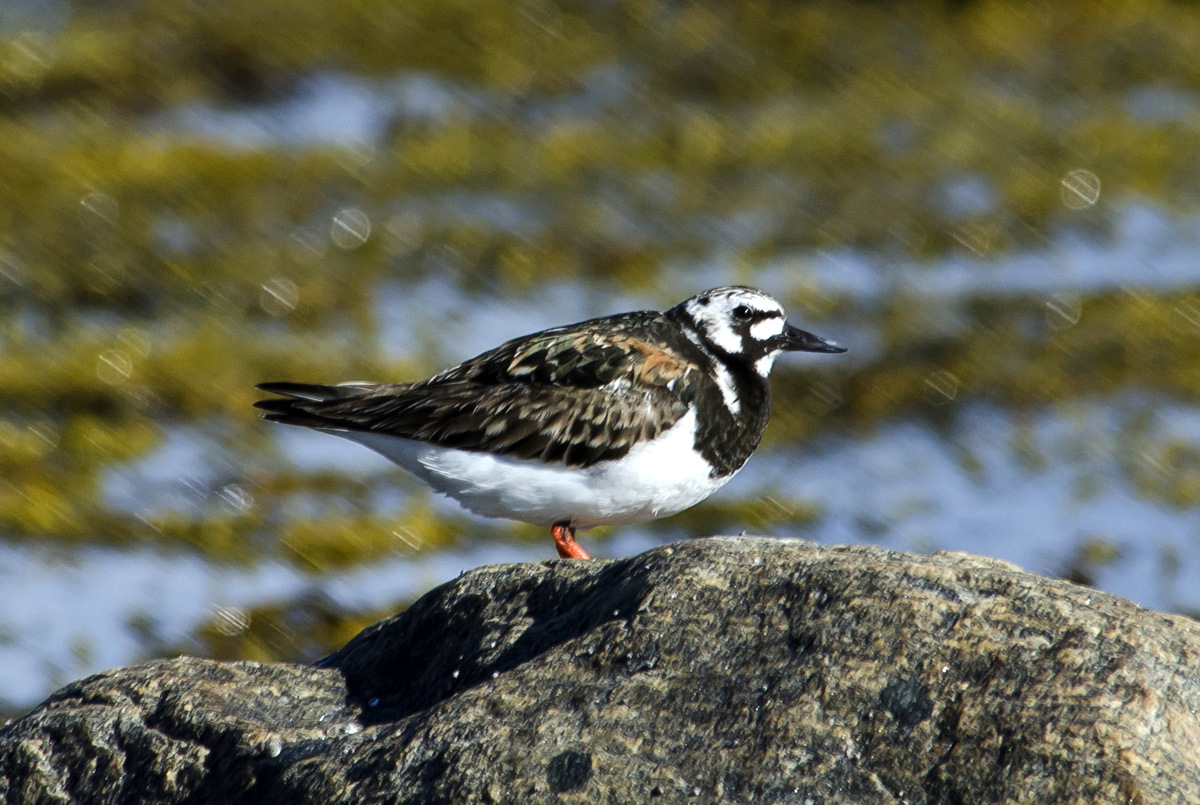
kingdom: Animalia
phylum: Chordata
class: Aves
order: Charadriiformes
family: Scolopacidae
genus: Arenaria
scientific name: Arenaria interpres
